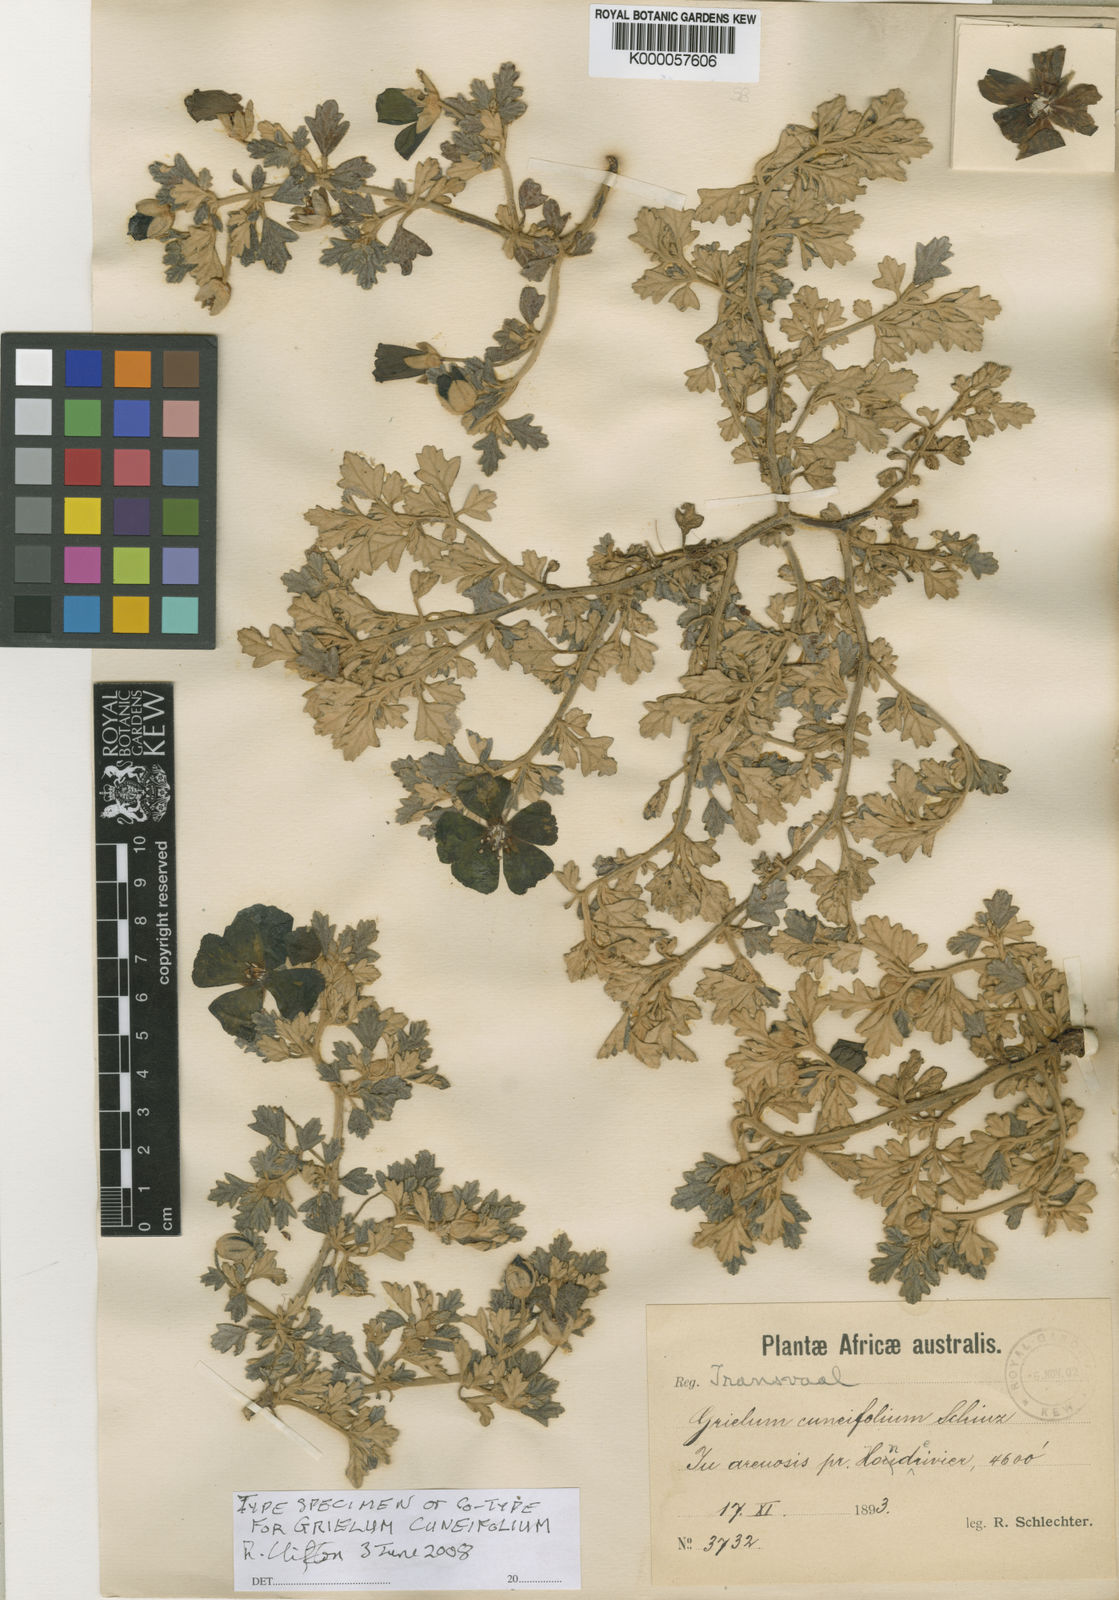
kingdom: Plantae
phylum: Tracheophyta
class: Magnoliopsida
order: Malvales
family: Neuradaceae
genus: Grielum
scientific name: Grielum cuneifolium
